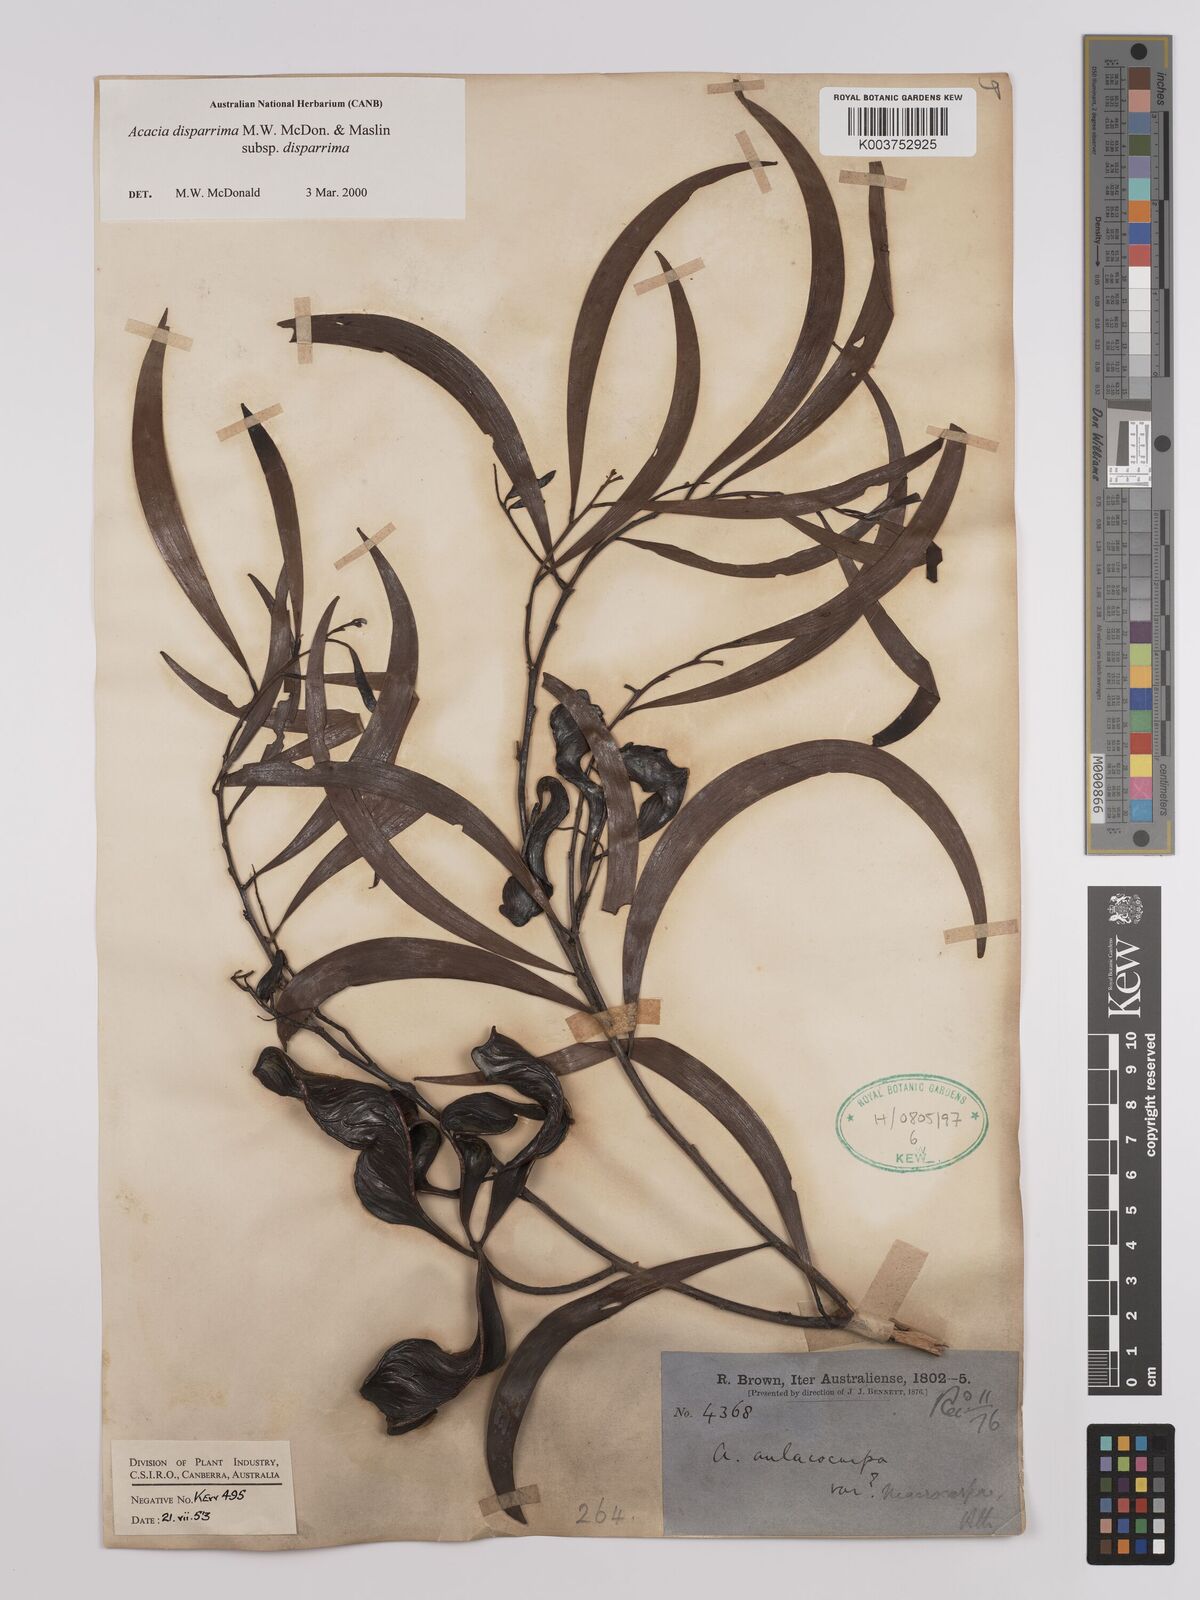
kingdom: Plantae
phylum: Tracheophyta
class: Magnoliopsida
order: Fabales
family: Fabaceae
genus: Acacia
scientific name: Acacia disparrima
